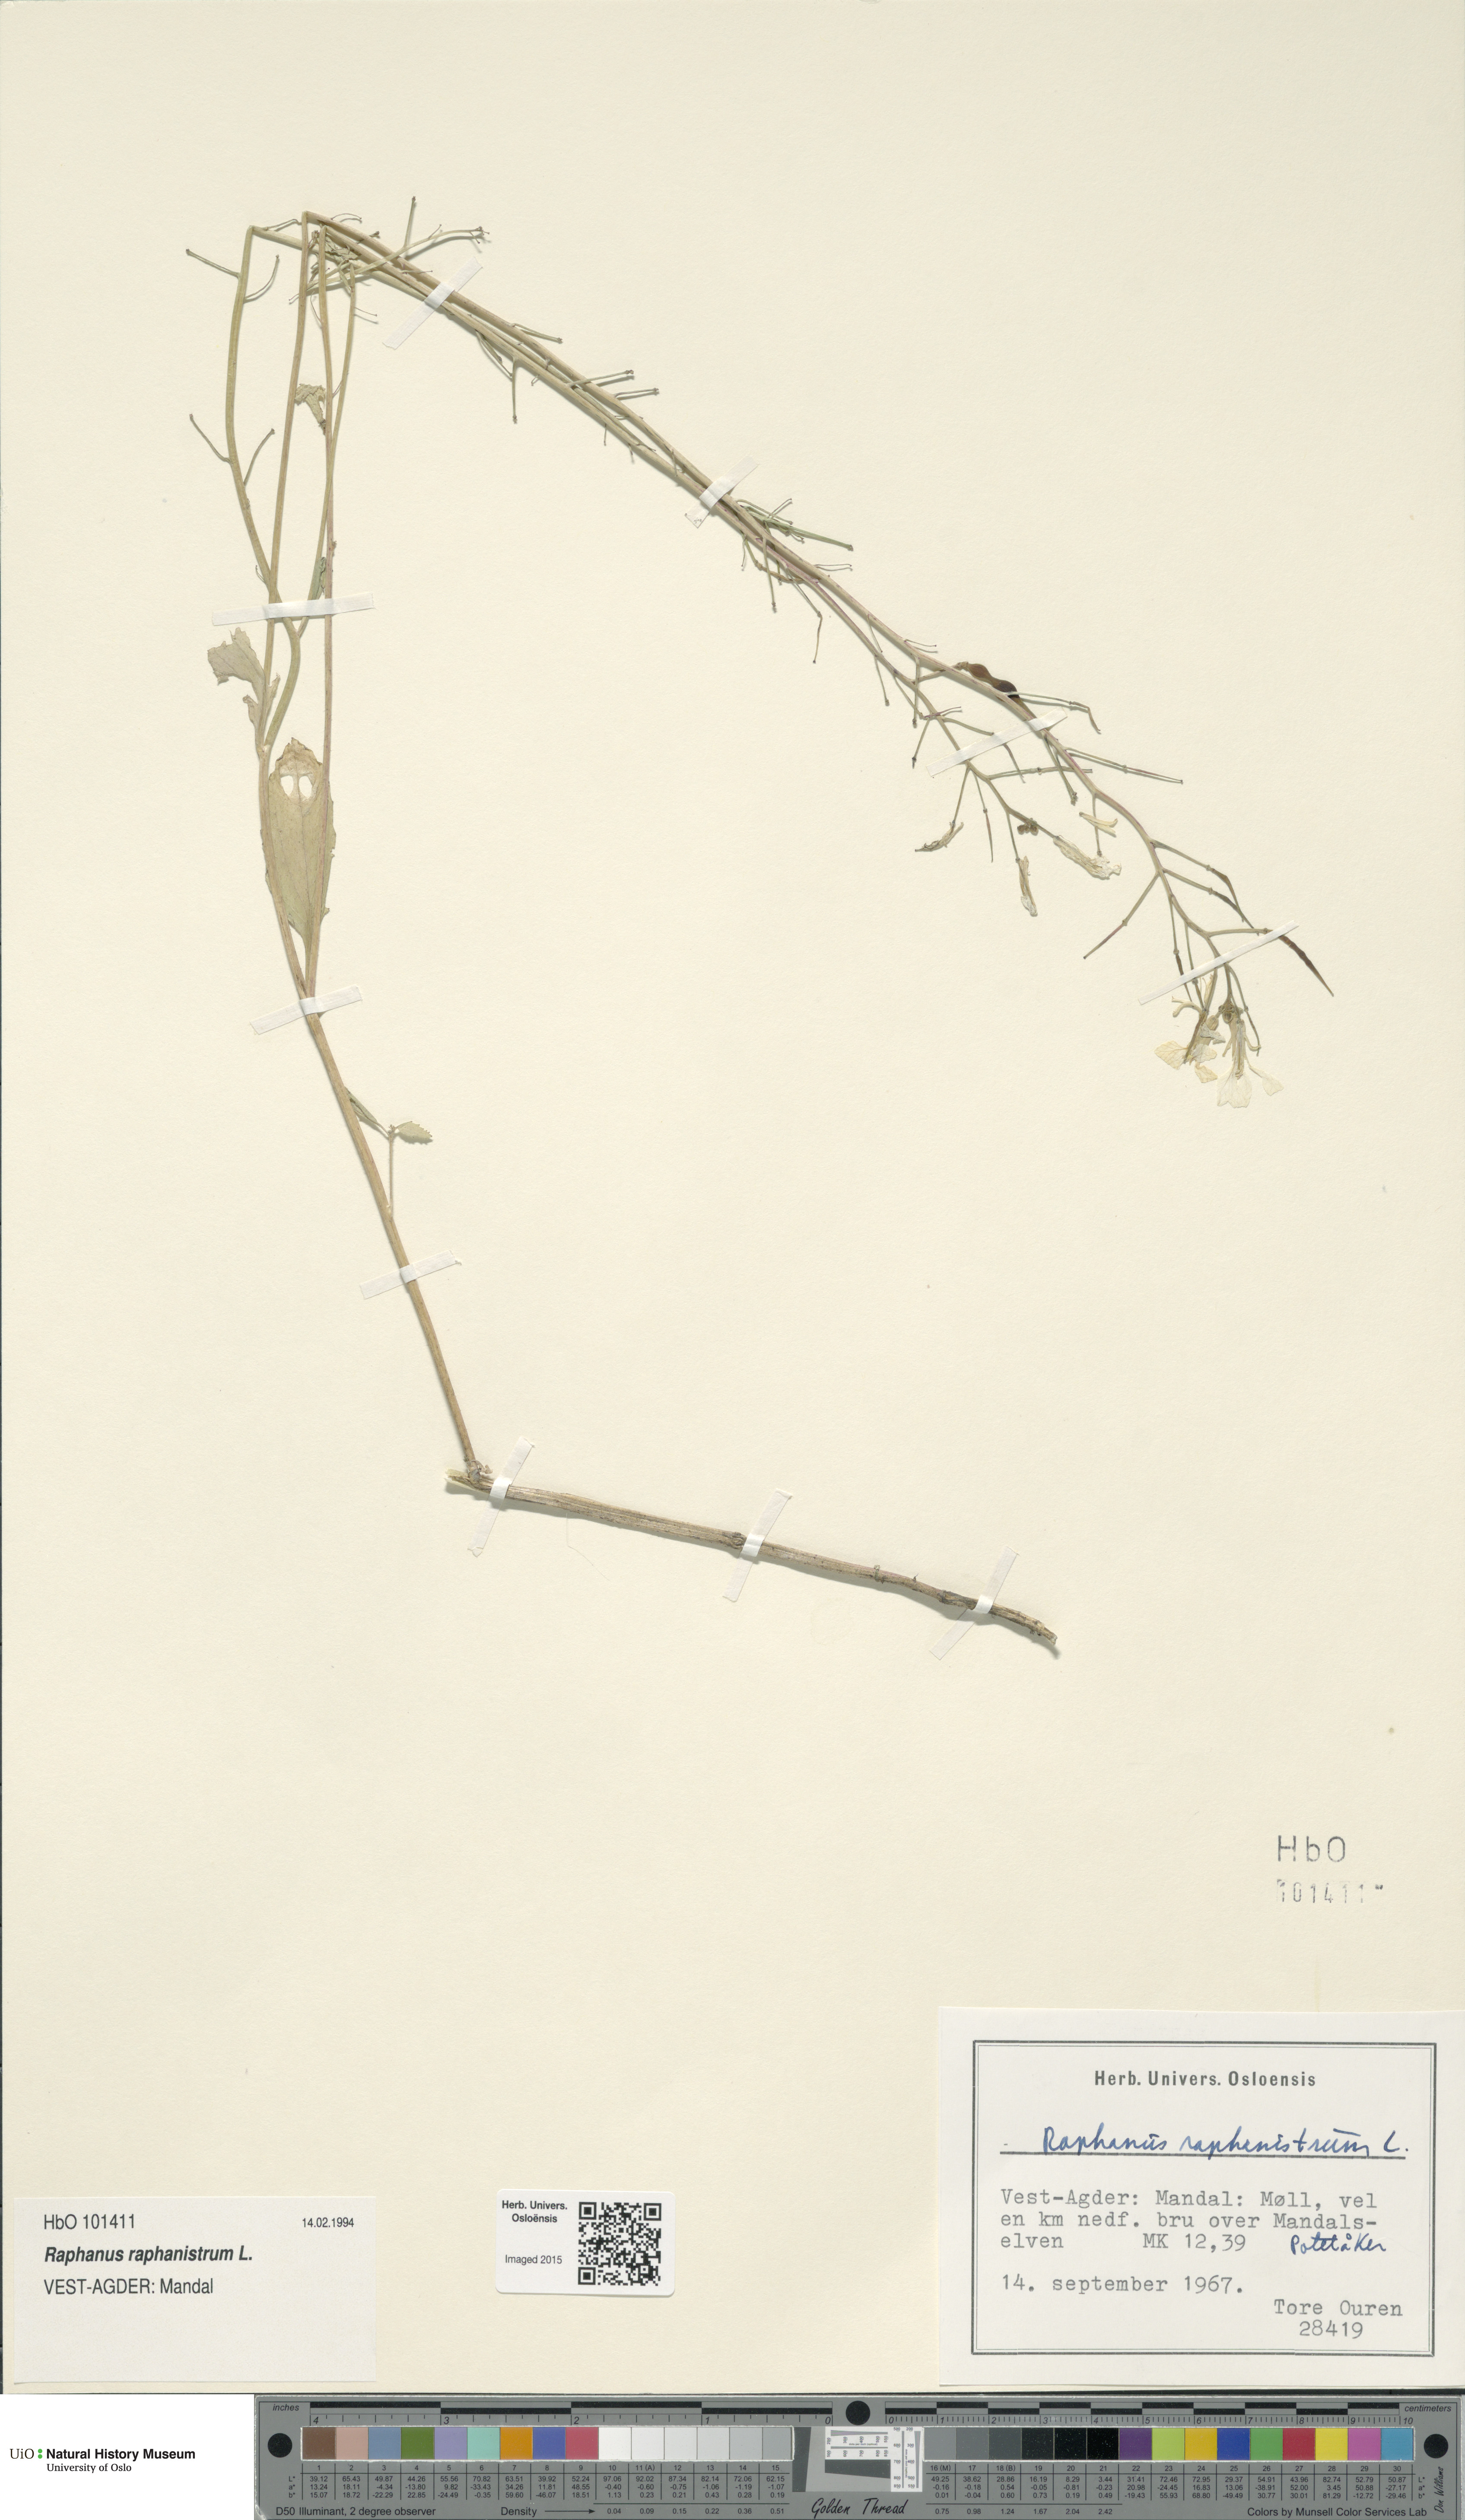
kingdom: Plantae
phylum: Tracheophyta
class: Magnoliopsida
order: Brassicales
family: Brassicaceae
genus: Raphanus
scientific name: Raphanus raphanistrum
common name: Wild radish
